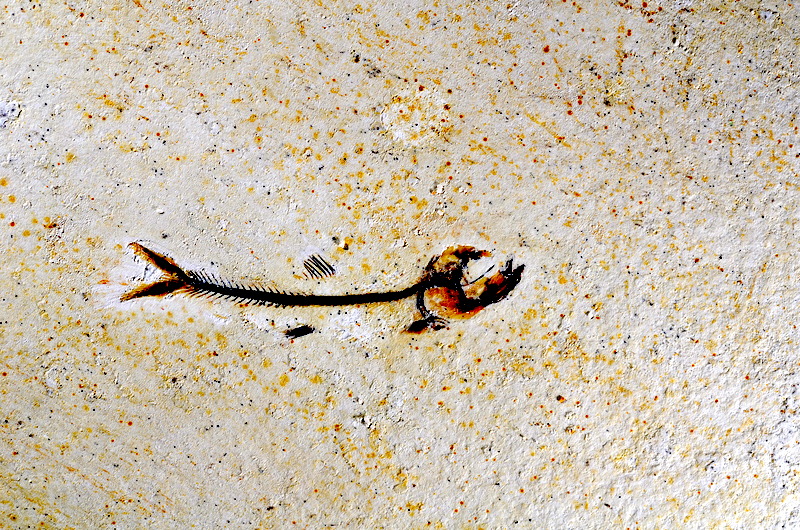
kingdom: Animalia
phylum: Chordata
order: Salmoniformes
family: Orthogonikleithridae
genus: Orthogonikleithrus
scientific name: Orthogonikleithrus hoelli
